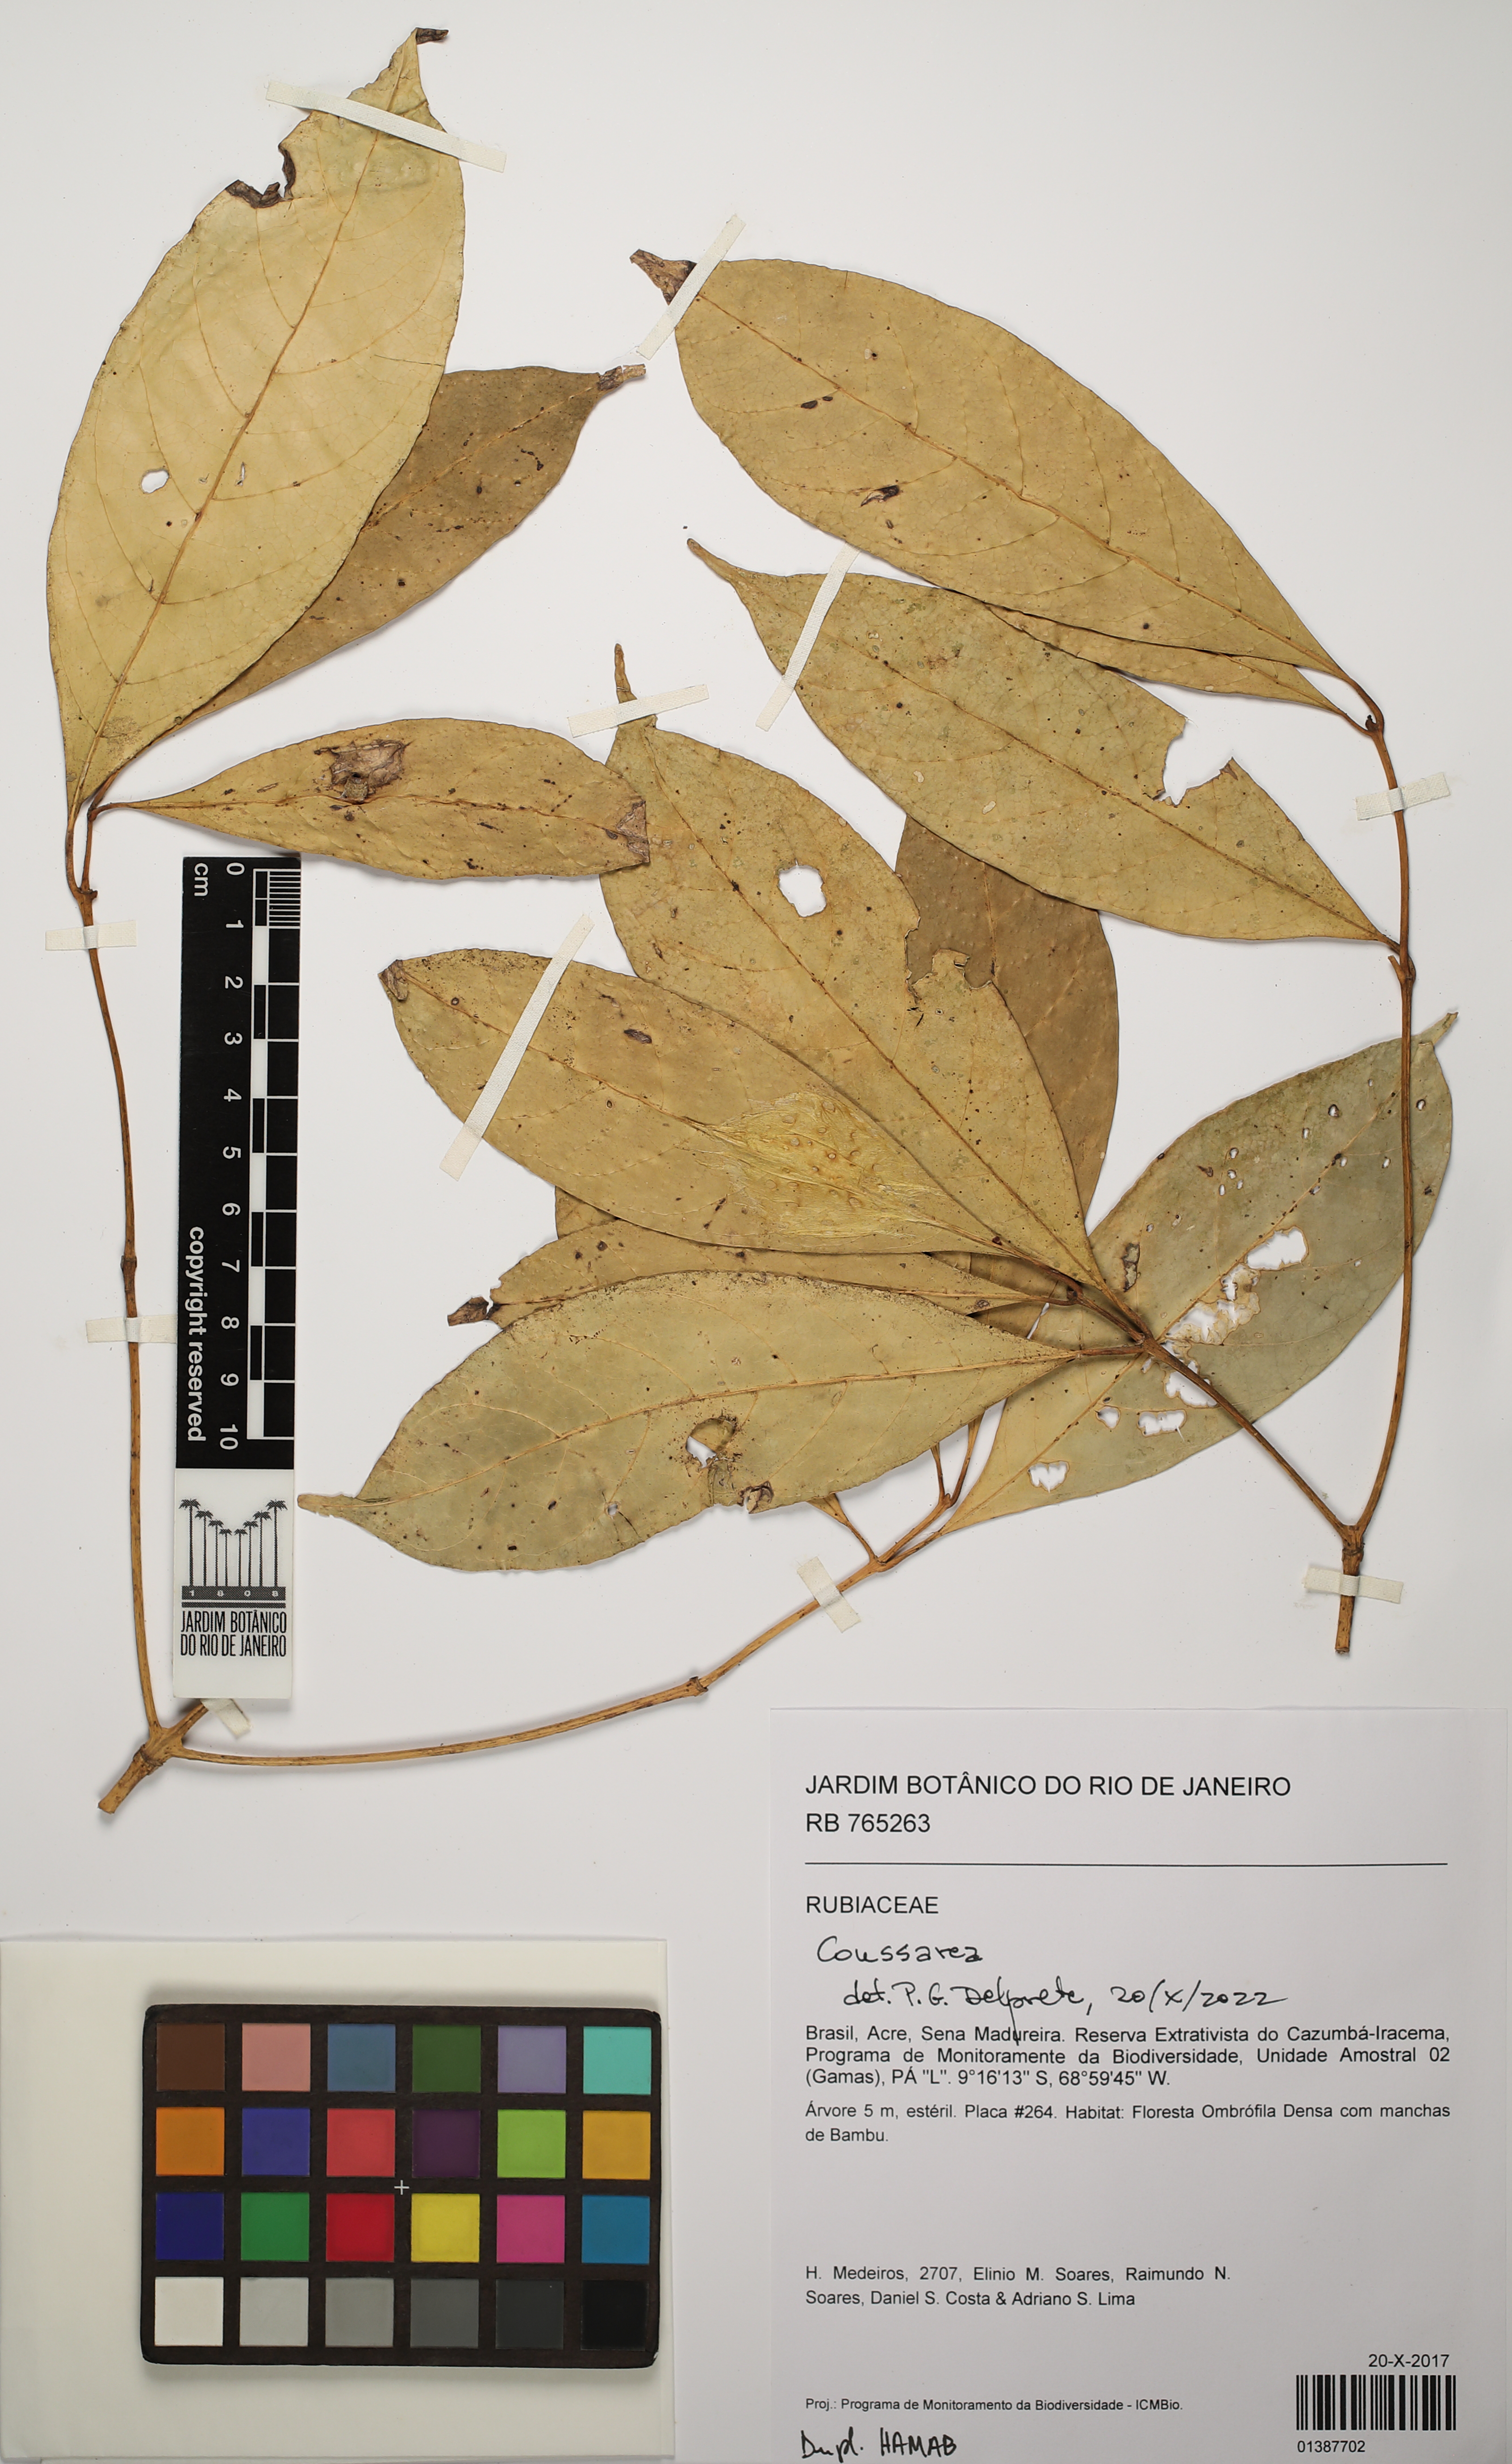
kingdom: Plantae
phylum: Tracheophyta
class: Magnoliopsida
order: Gentianales
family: Rubiaceae
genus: Coussarea
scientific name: Coussarea
